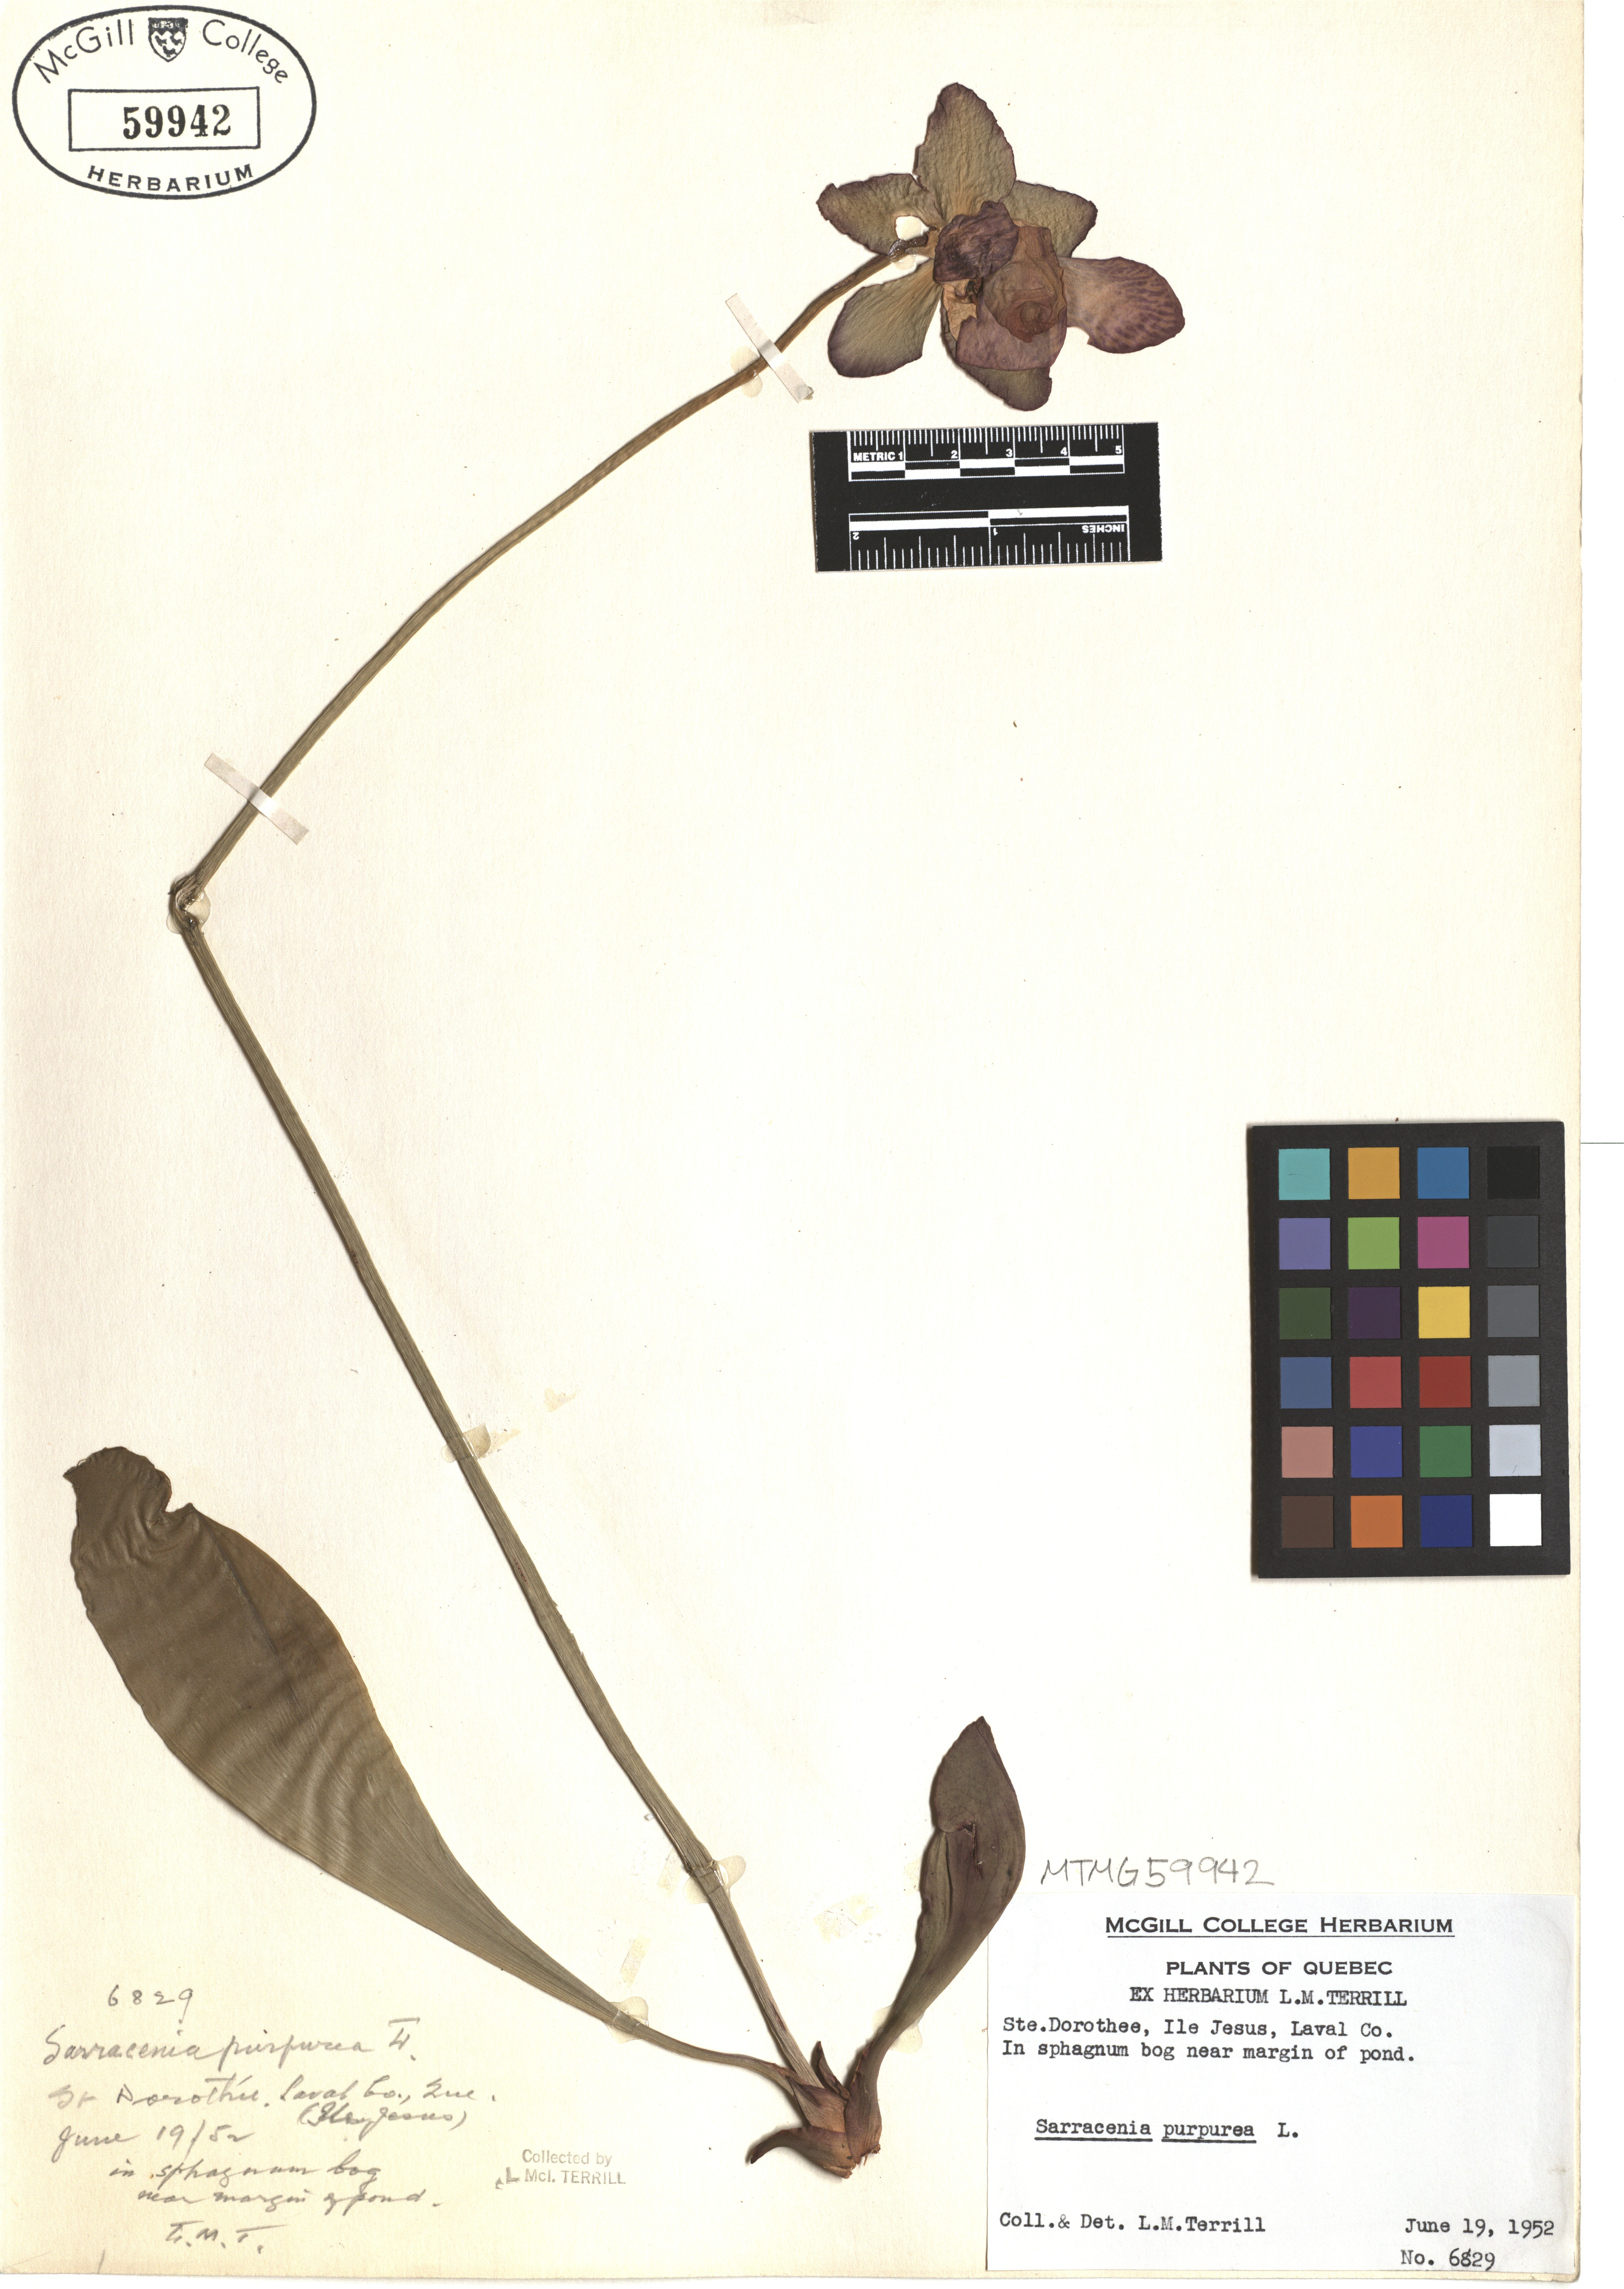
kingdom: Plantae
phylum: Tracheophyta
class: Magnoliopsida
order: Ericales
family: Sarraceniaceae
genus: Sarracenia
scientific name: Sarracenia purpurea
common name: Pitcherplant
